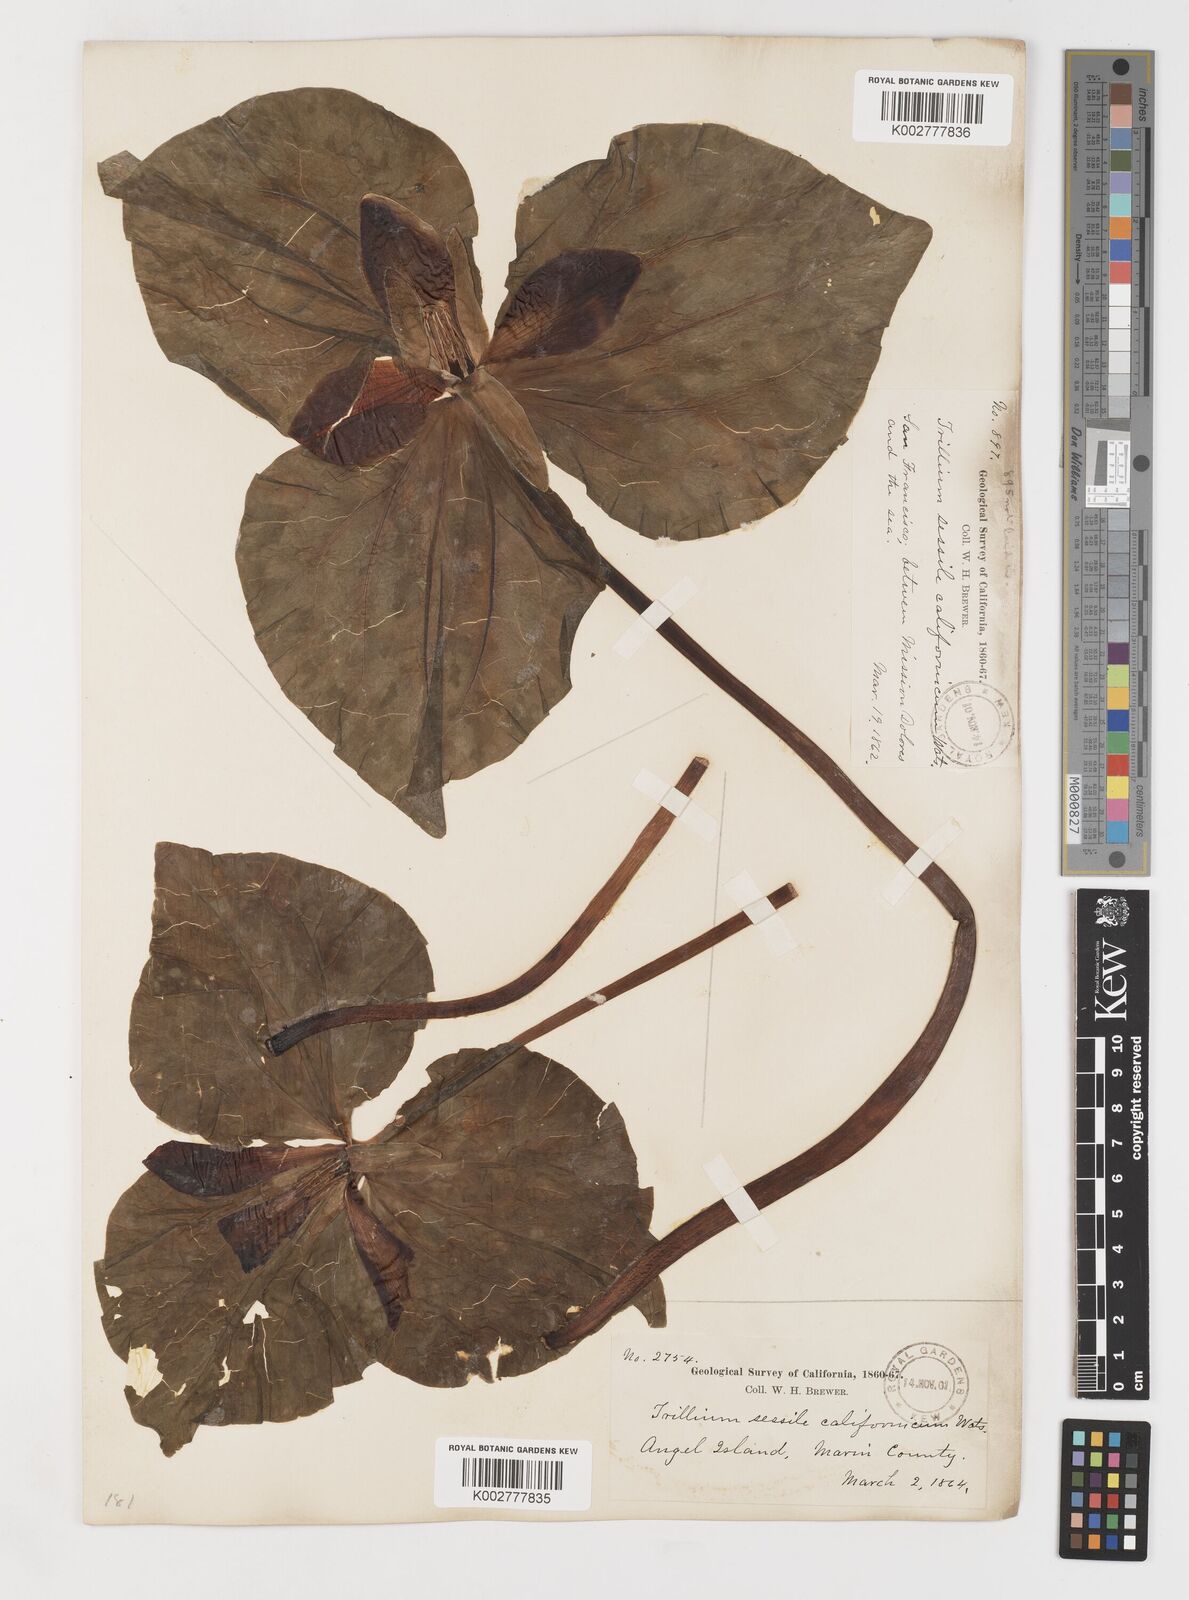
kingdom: Plantae
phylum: Tracheophyta
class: Liliopsida
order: Liliales
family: Melanthiaceae
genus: Trillium
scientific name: Trillium chloropetalum
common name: Giant trillium
